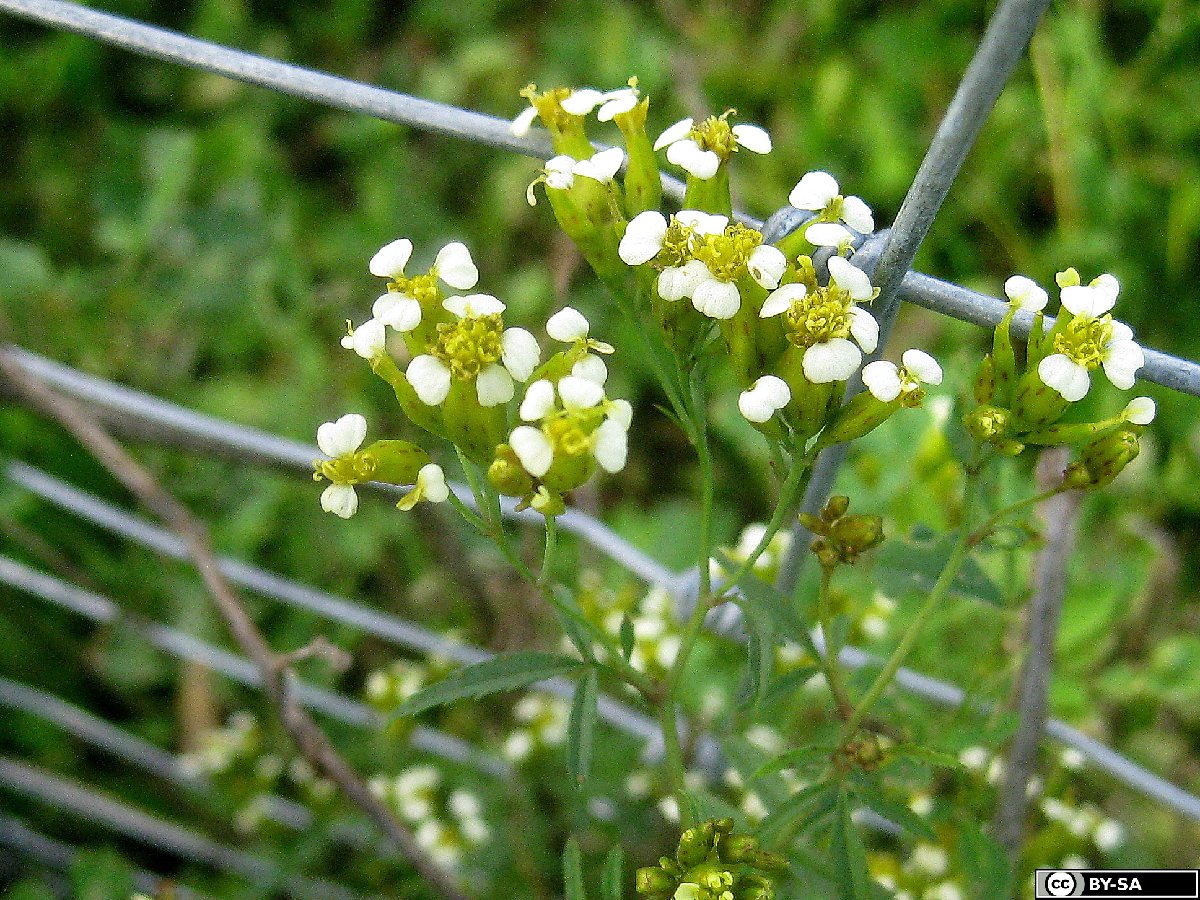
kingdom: Plantae
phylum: Tracheophyta
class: Magnoliopsida
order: Asterales
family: Asteraceae
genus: Tagetes
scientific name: Tagetes minuta
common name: Muster john henry
